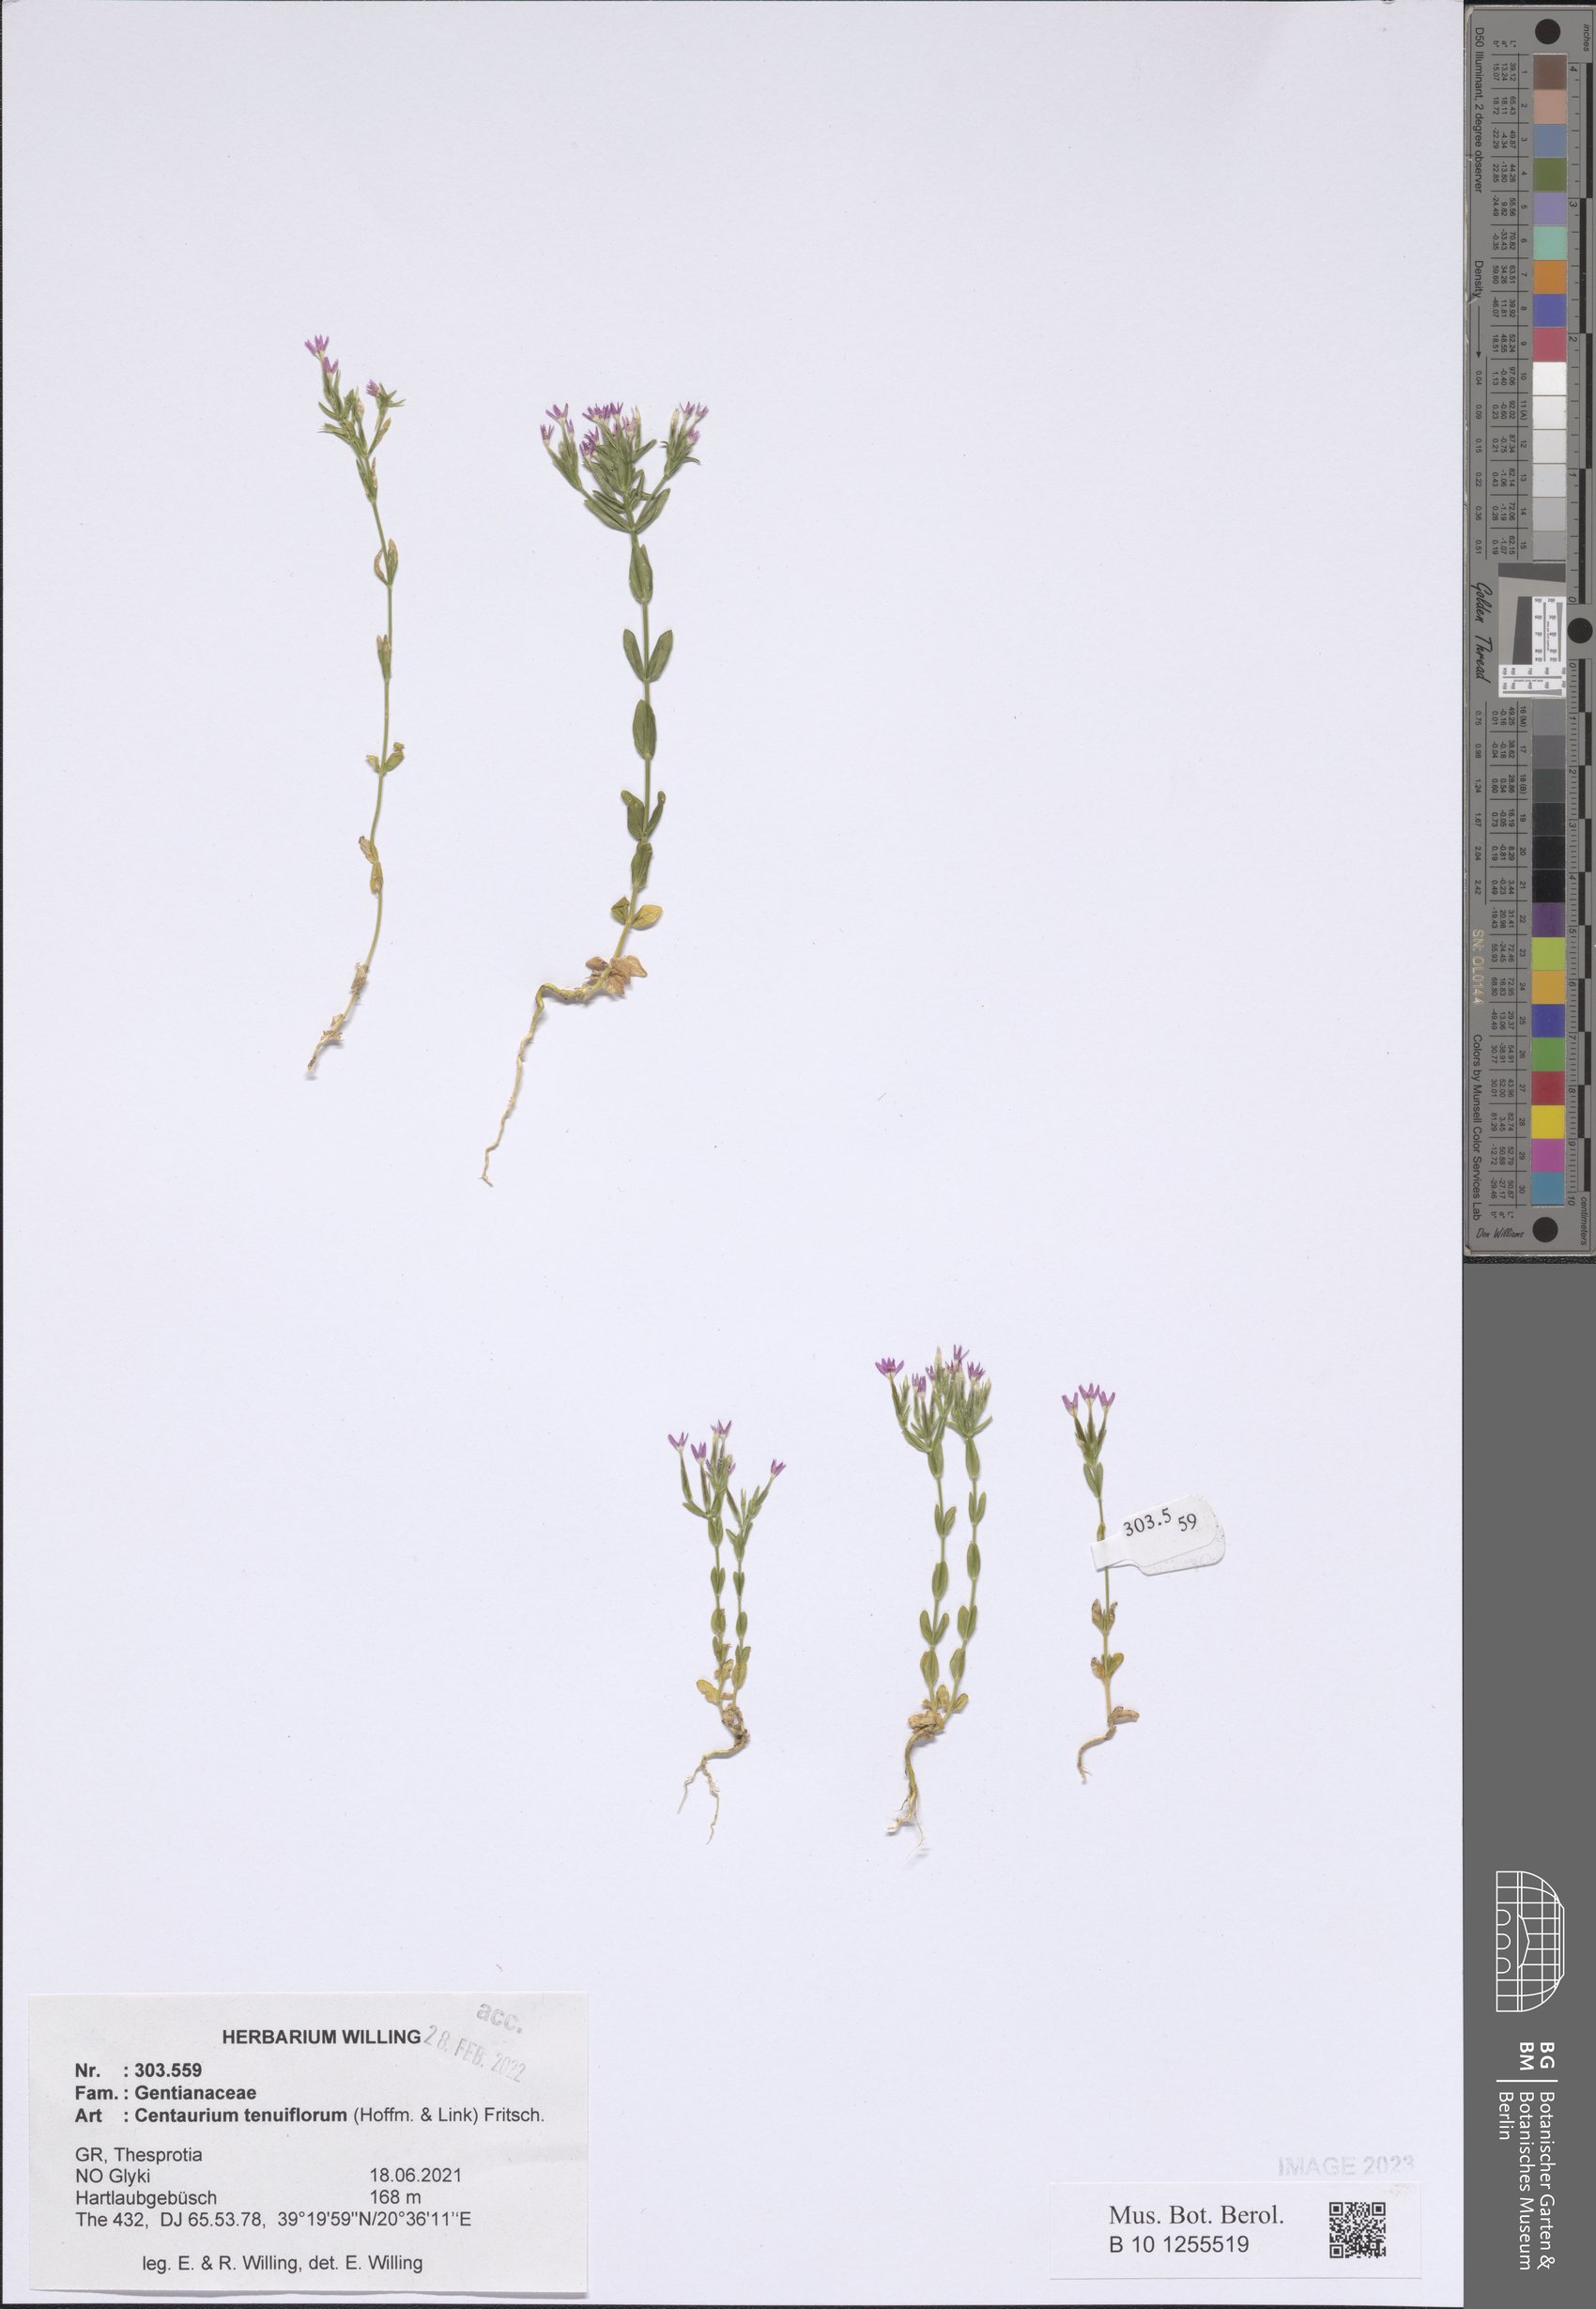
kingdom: Plantae
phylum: Tracheophyta
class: Magnoliopsida
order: Gentianales
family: Gentianaceae
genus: Centaurium
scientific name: Centaurium tenuiflorum
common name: Slender centaury
